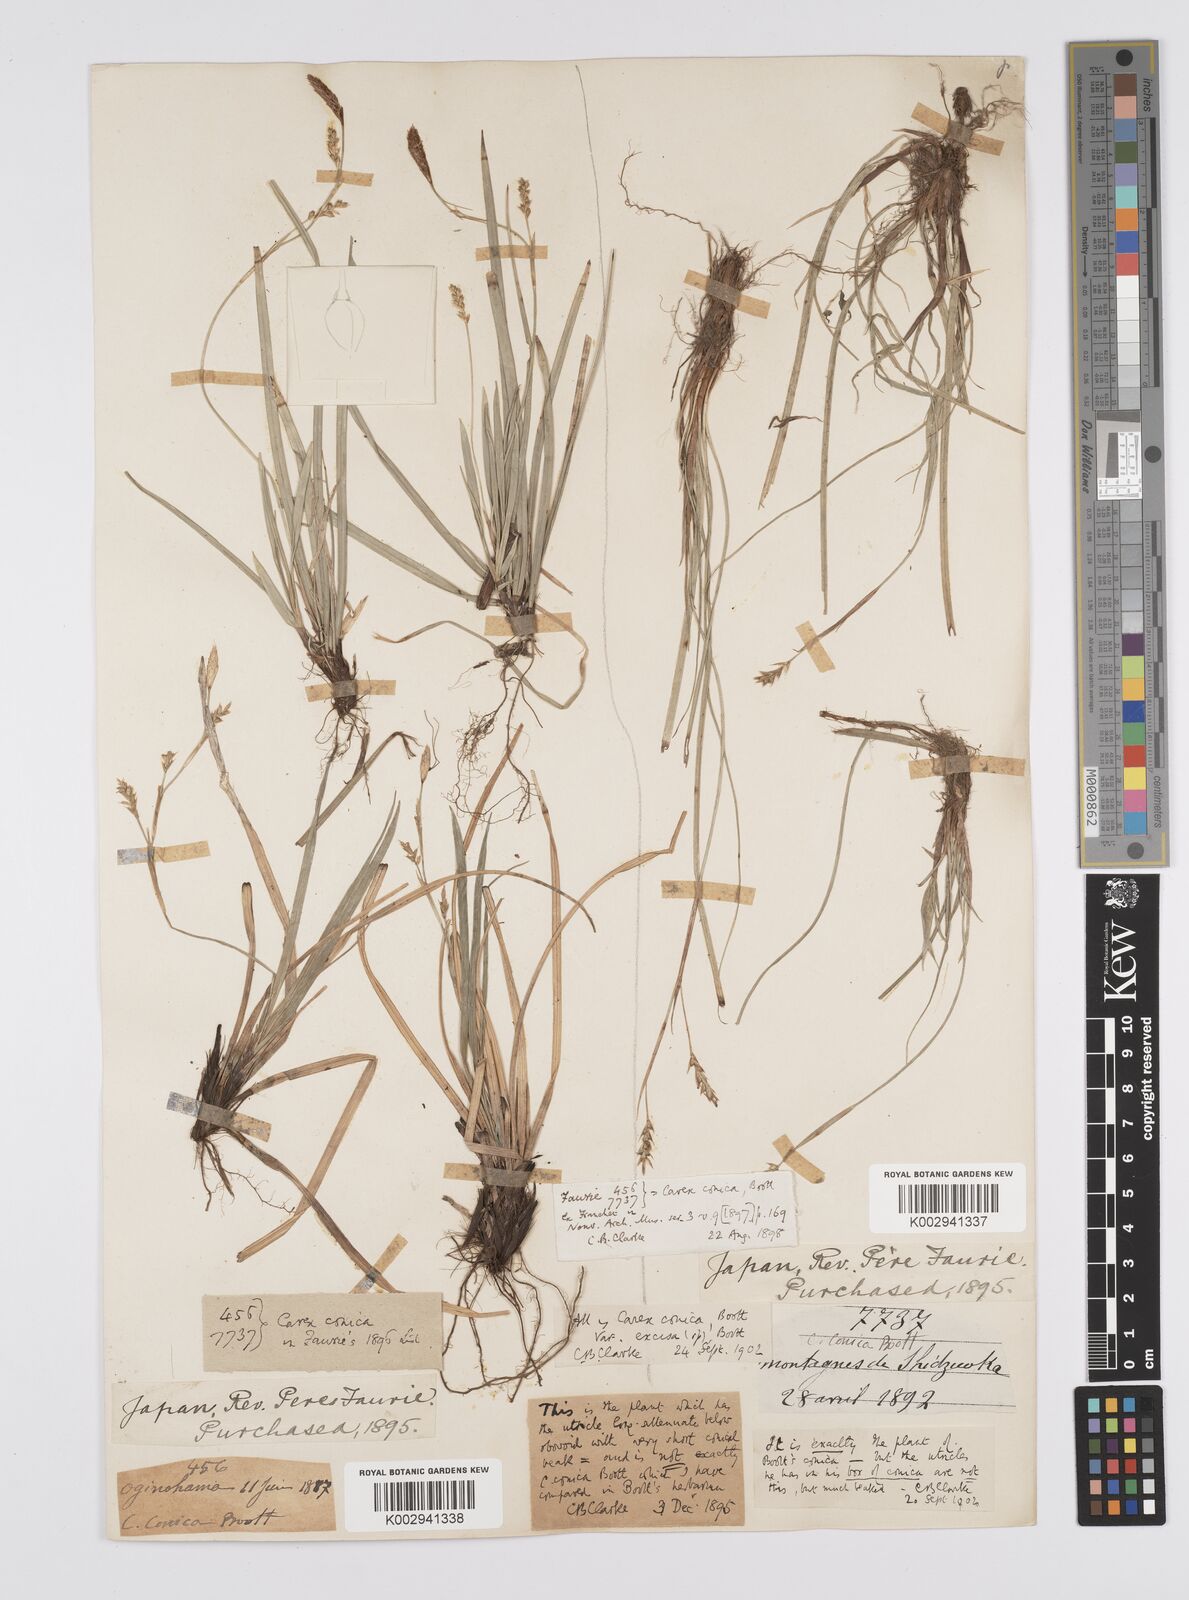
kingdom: Plantae
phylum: Tracheophyta
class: Liliopsida
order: Poales
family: Cyperaceae
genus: Carex
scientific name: Carex conica
